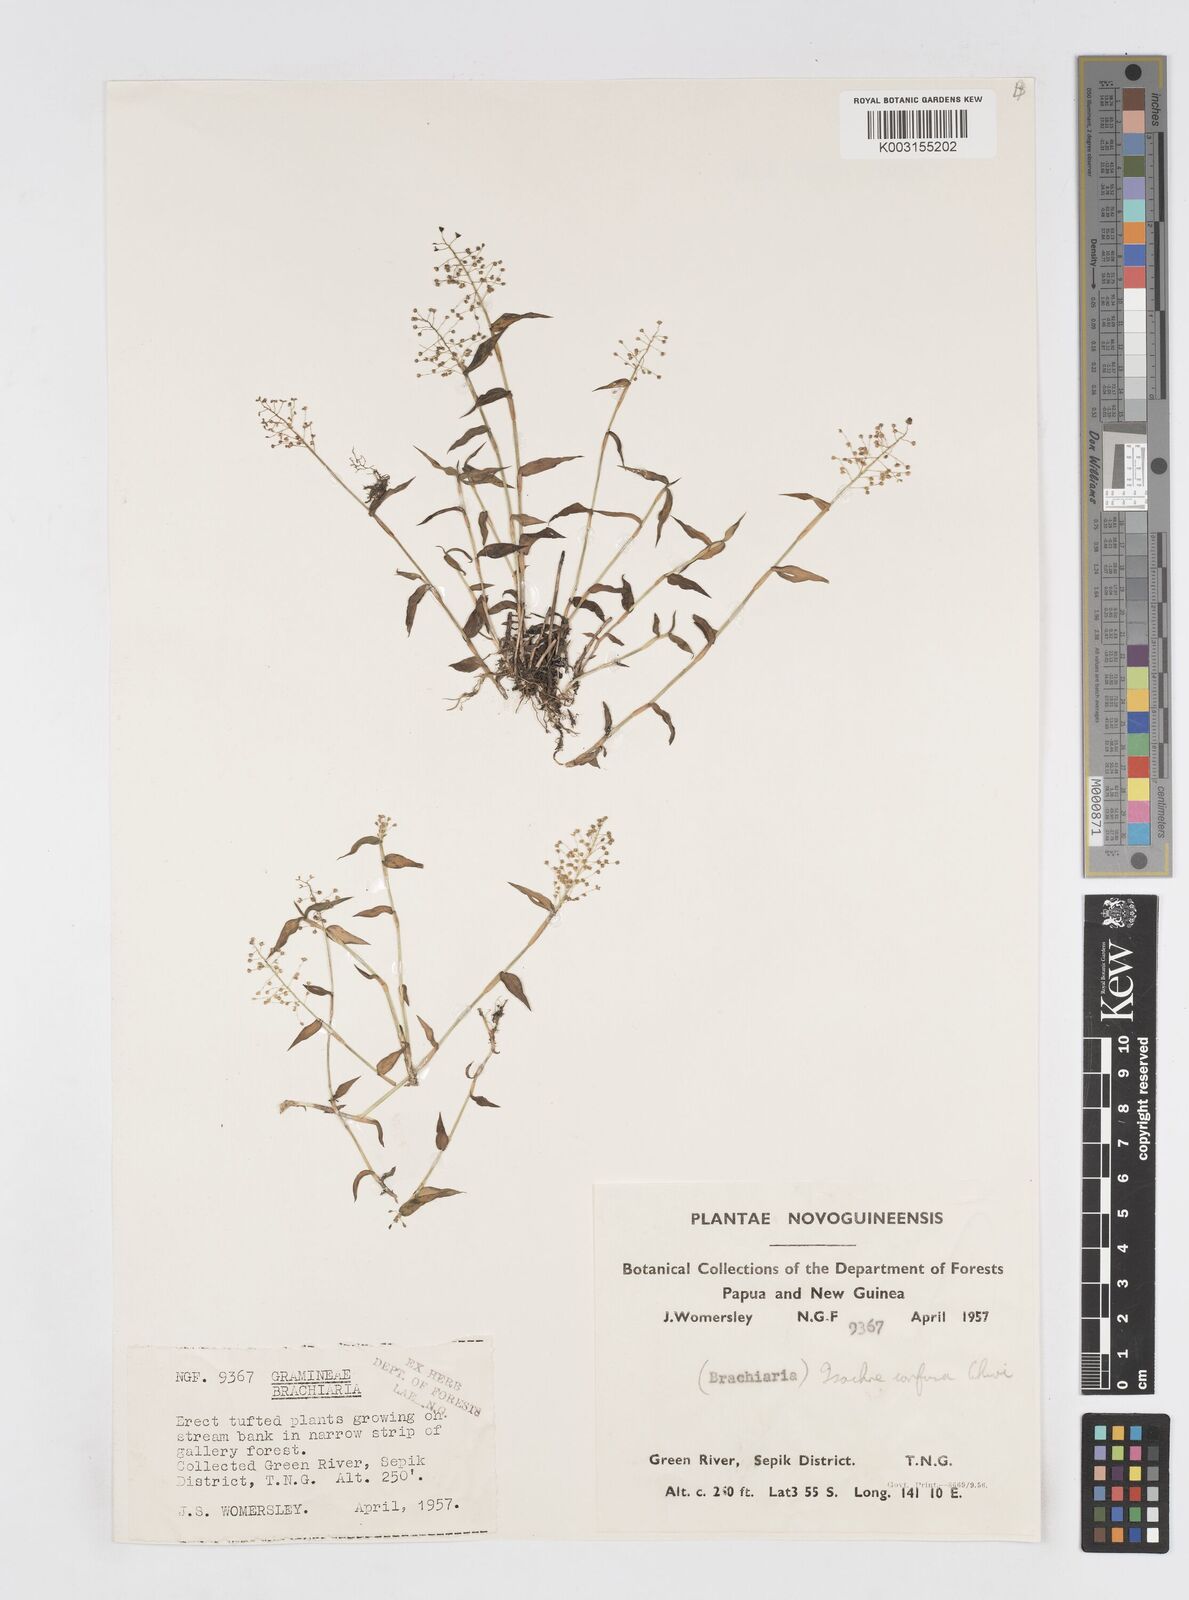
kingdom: Plantae
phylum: Tracheophyta
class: Liliopsida
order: Poales
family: Poaceae
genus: Isachne
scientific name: Isachne confusa
